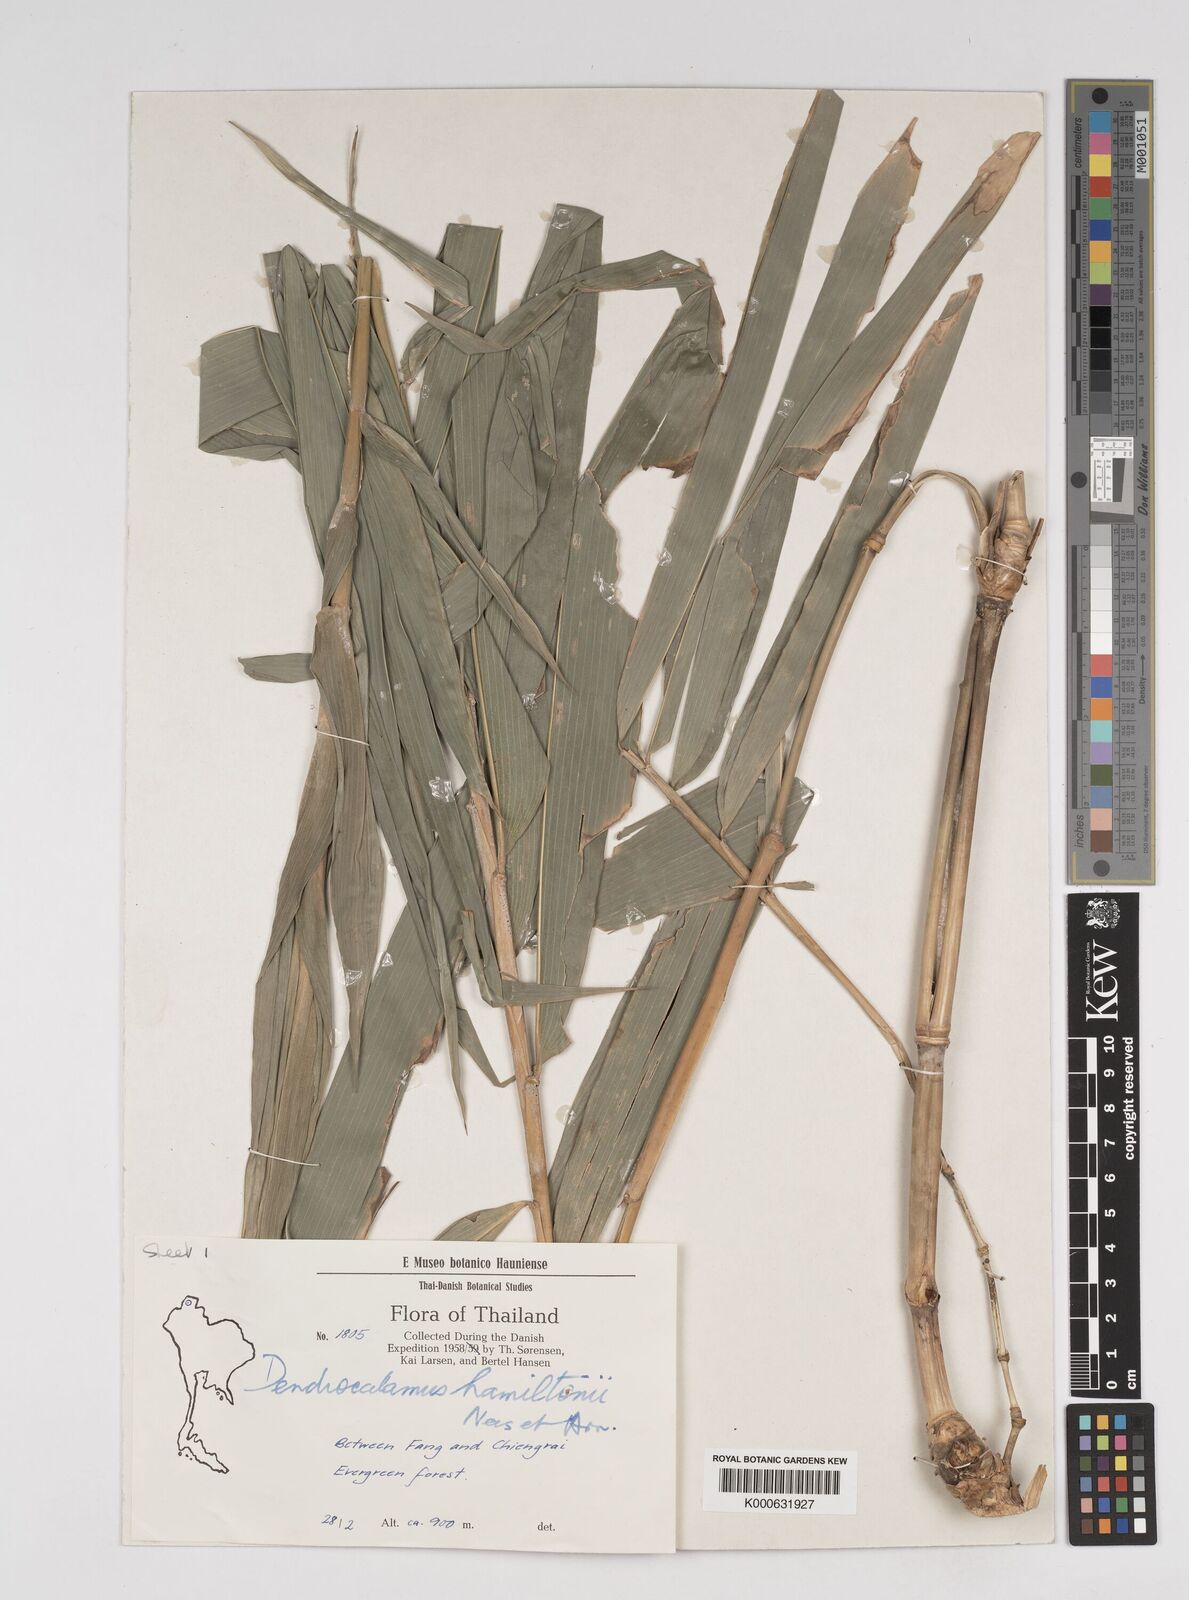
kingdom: Plantae
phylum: Tracheophyta
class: Liliopsida
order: Poales
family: Poaceae
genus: Dendrocalamus
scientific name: Dendrocalamus brandisii
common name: Velvetleaf bamboo
